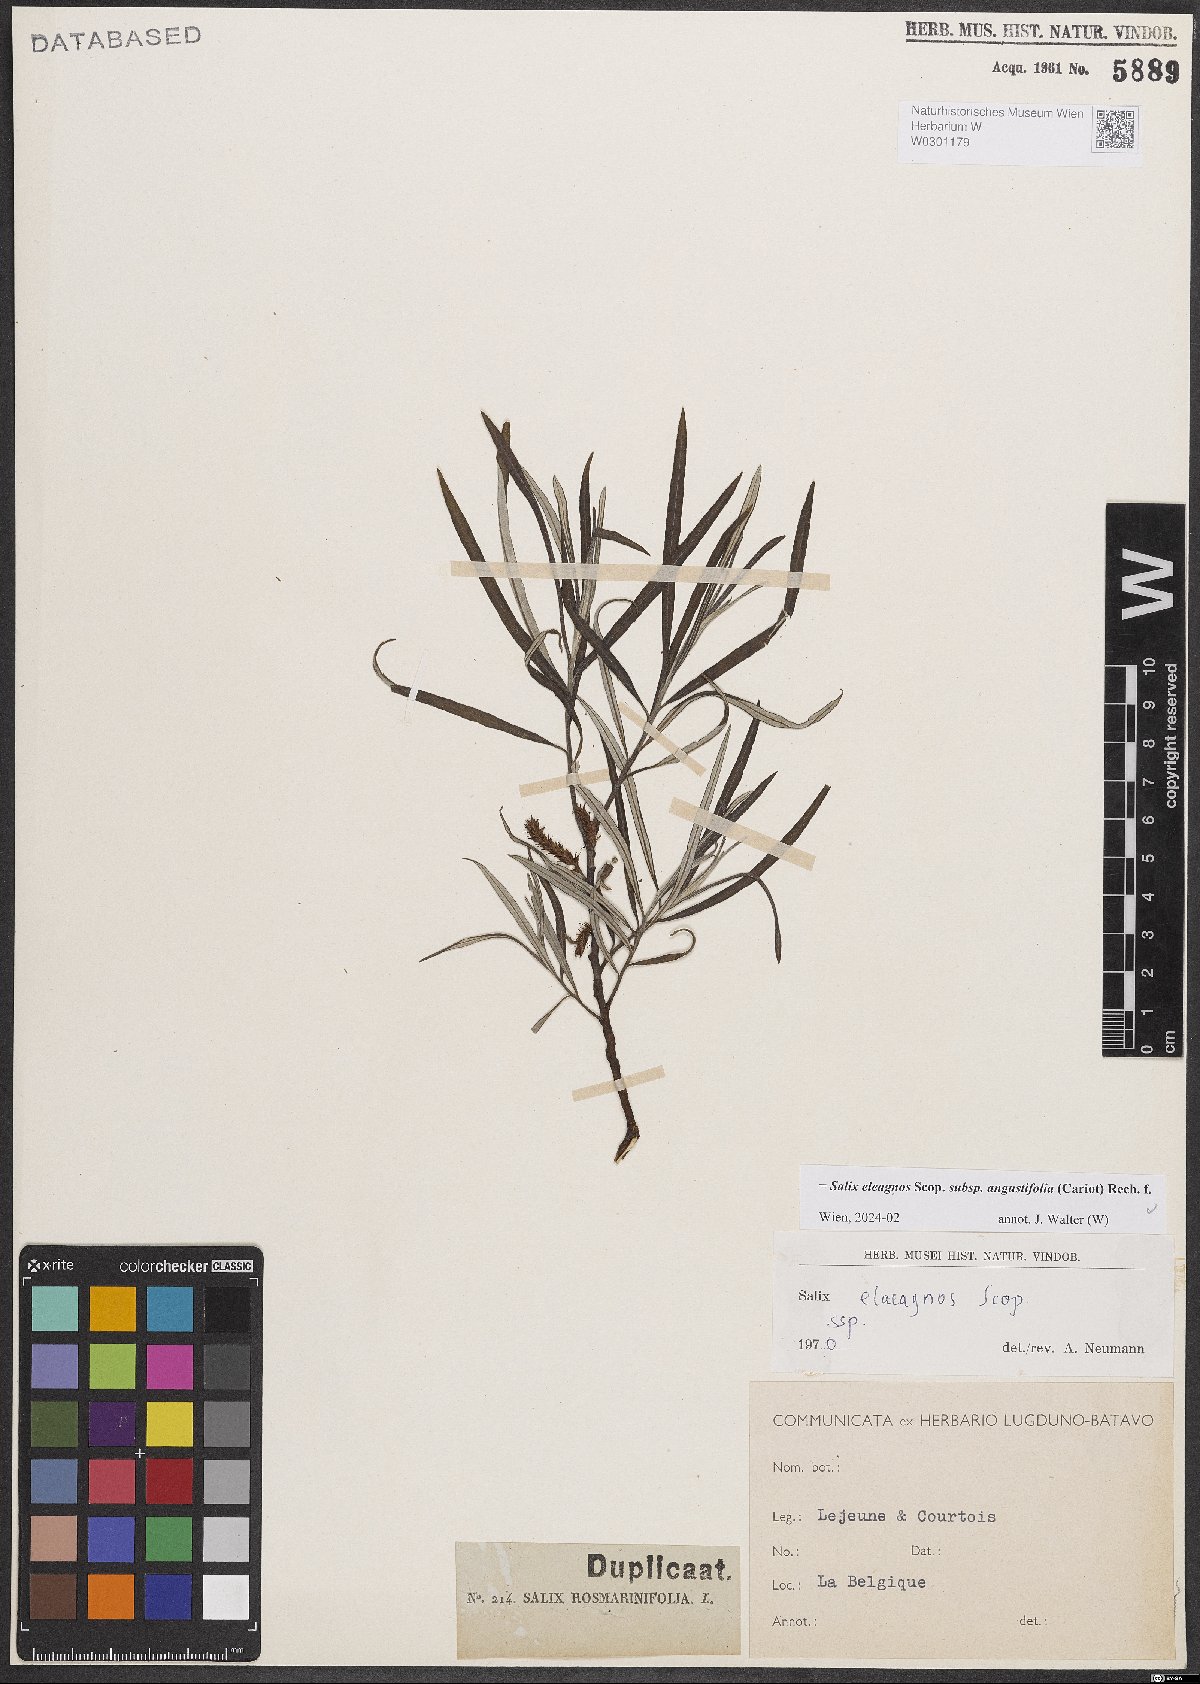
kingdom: Plantae
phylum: Tracheophyta
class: Magnoliopsida
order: Malpighiales
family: Salicaceae
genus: Salix
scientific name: Salix eleagnos
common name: Elaeagnus willow
